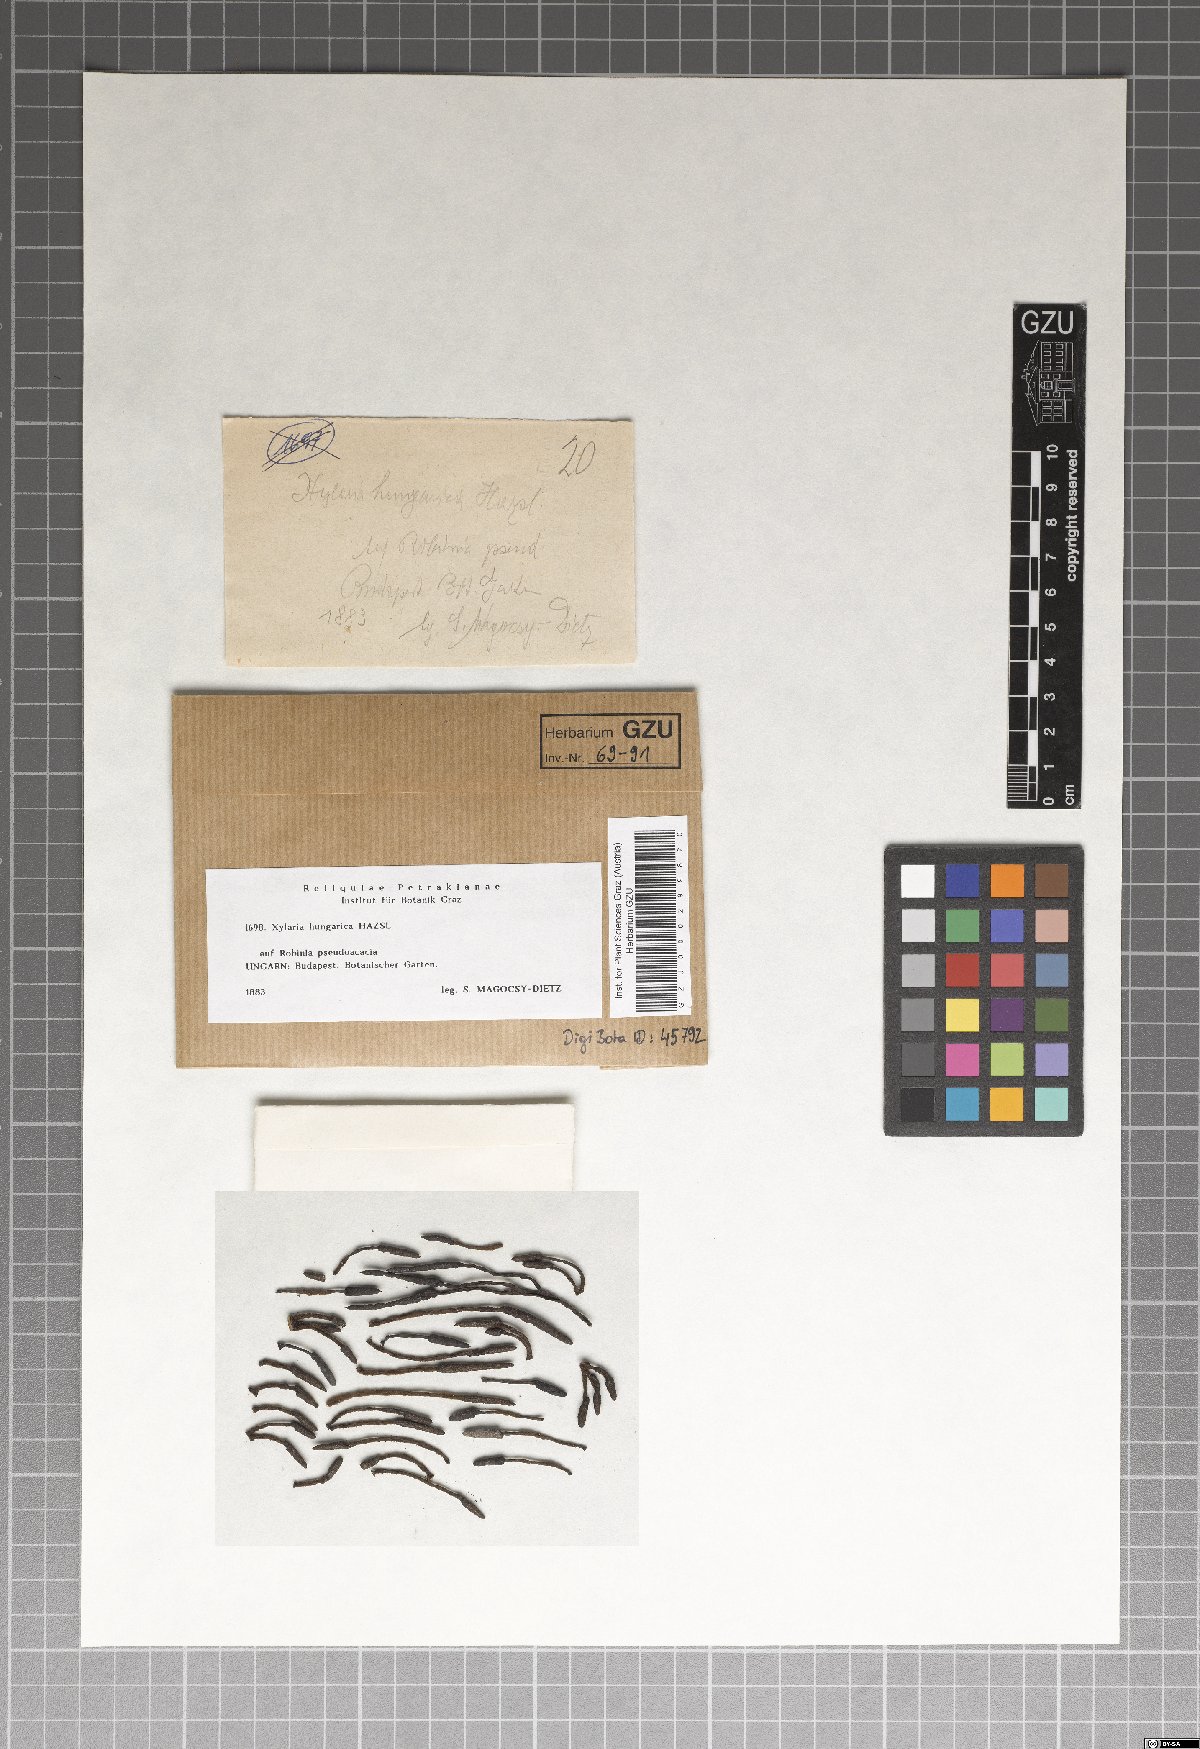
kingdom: Fungi
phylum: Ascomycota
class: Sordariomycetes
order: Xylariales
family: Xylariaceae
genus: Xylaria
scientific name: Xylaria
